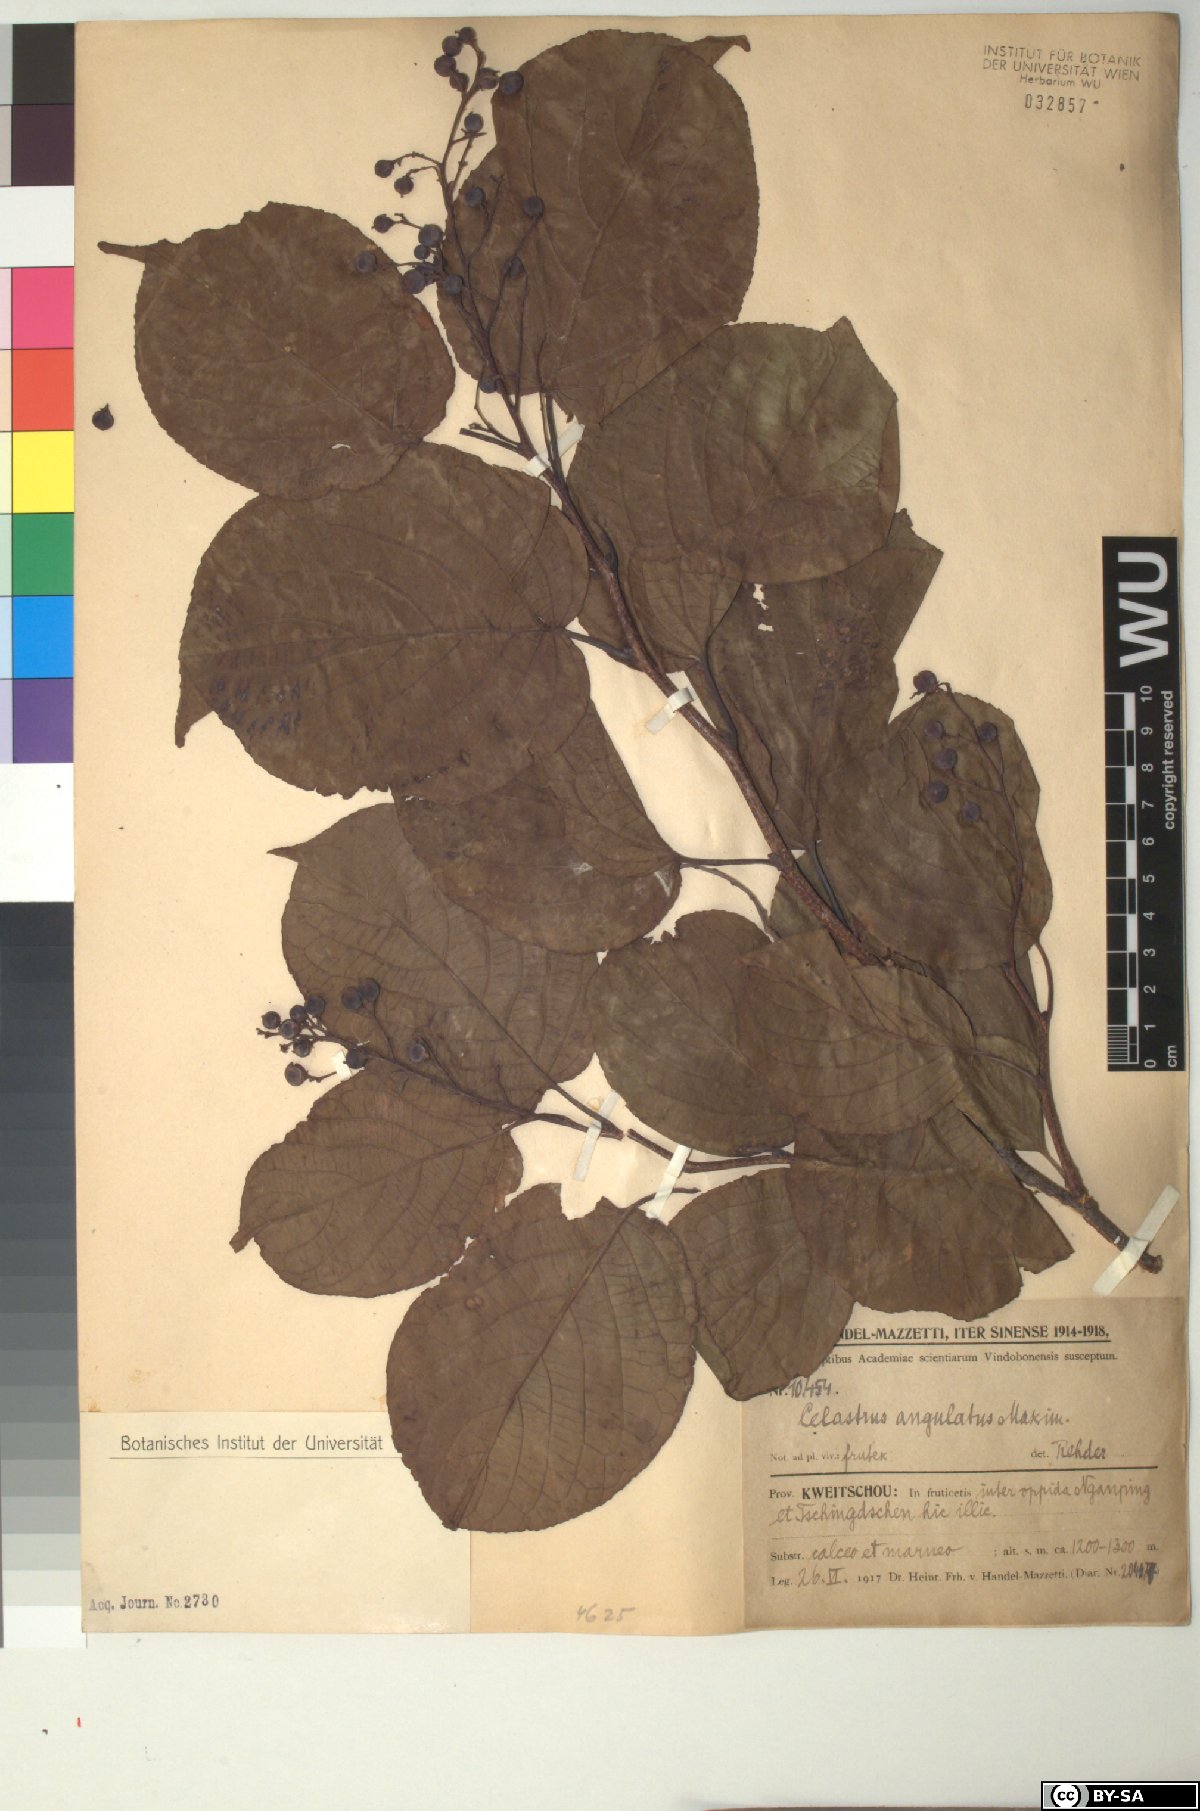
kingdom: Plantae
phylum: Tracheophyta
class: Magnoliopsida
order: Celastrales
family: Celastraceae
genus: Celastrus
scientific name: Celastrus angulatus
